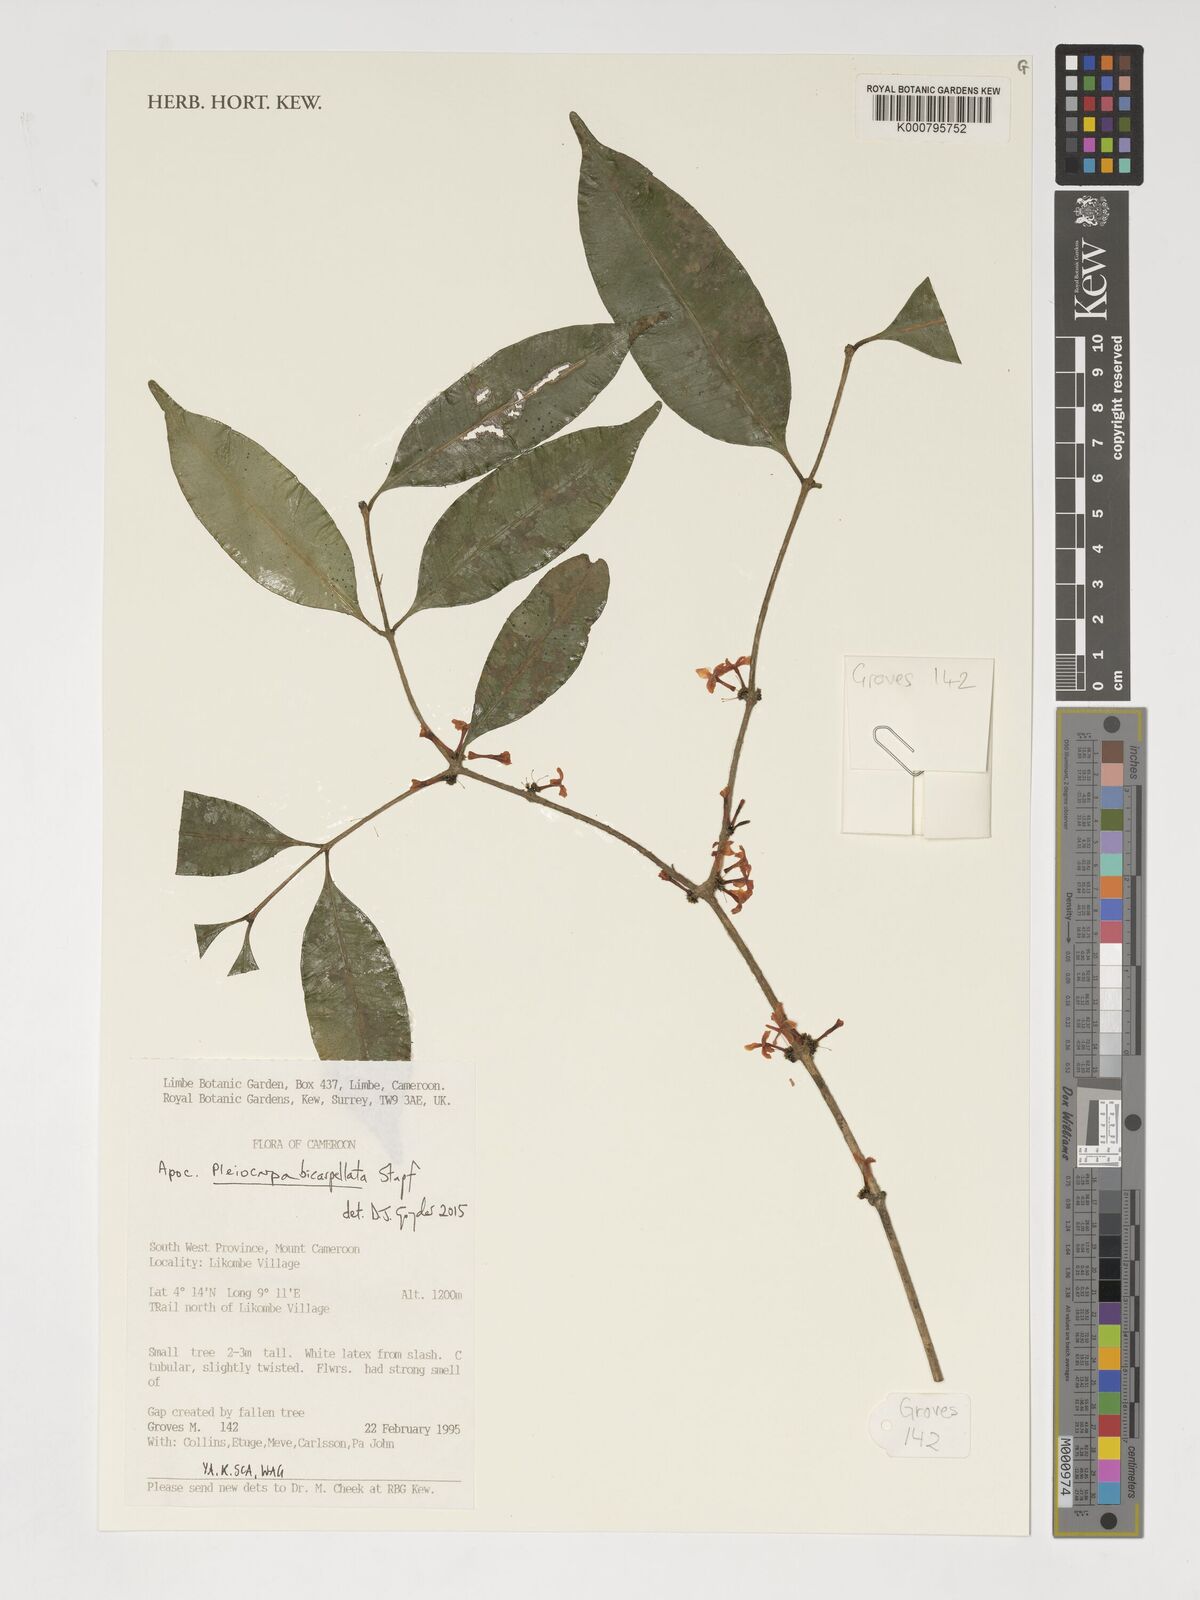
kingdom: Plantae
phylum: Tracheophyta
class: Magnoliopsida
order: Gentianales
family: Apocynaceae
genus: Pleiocarpa
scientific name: Pleiocarpa bicarpellata
